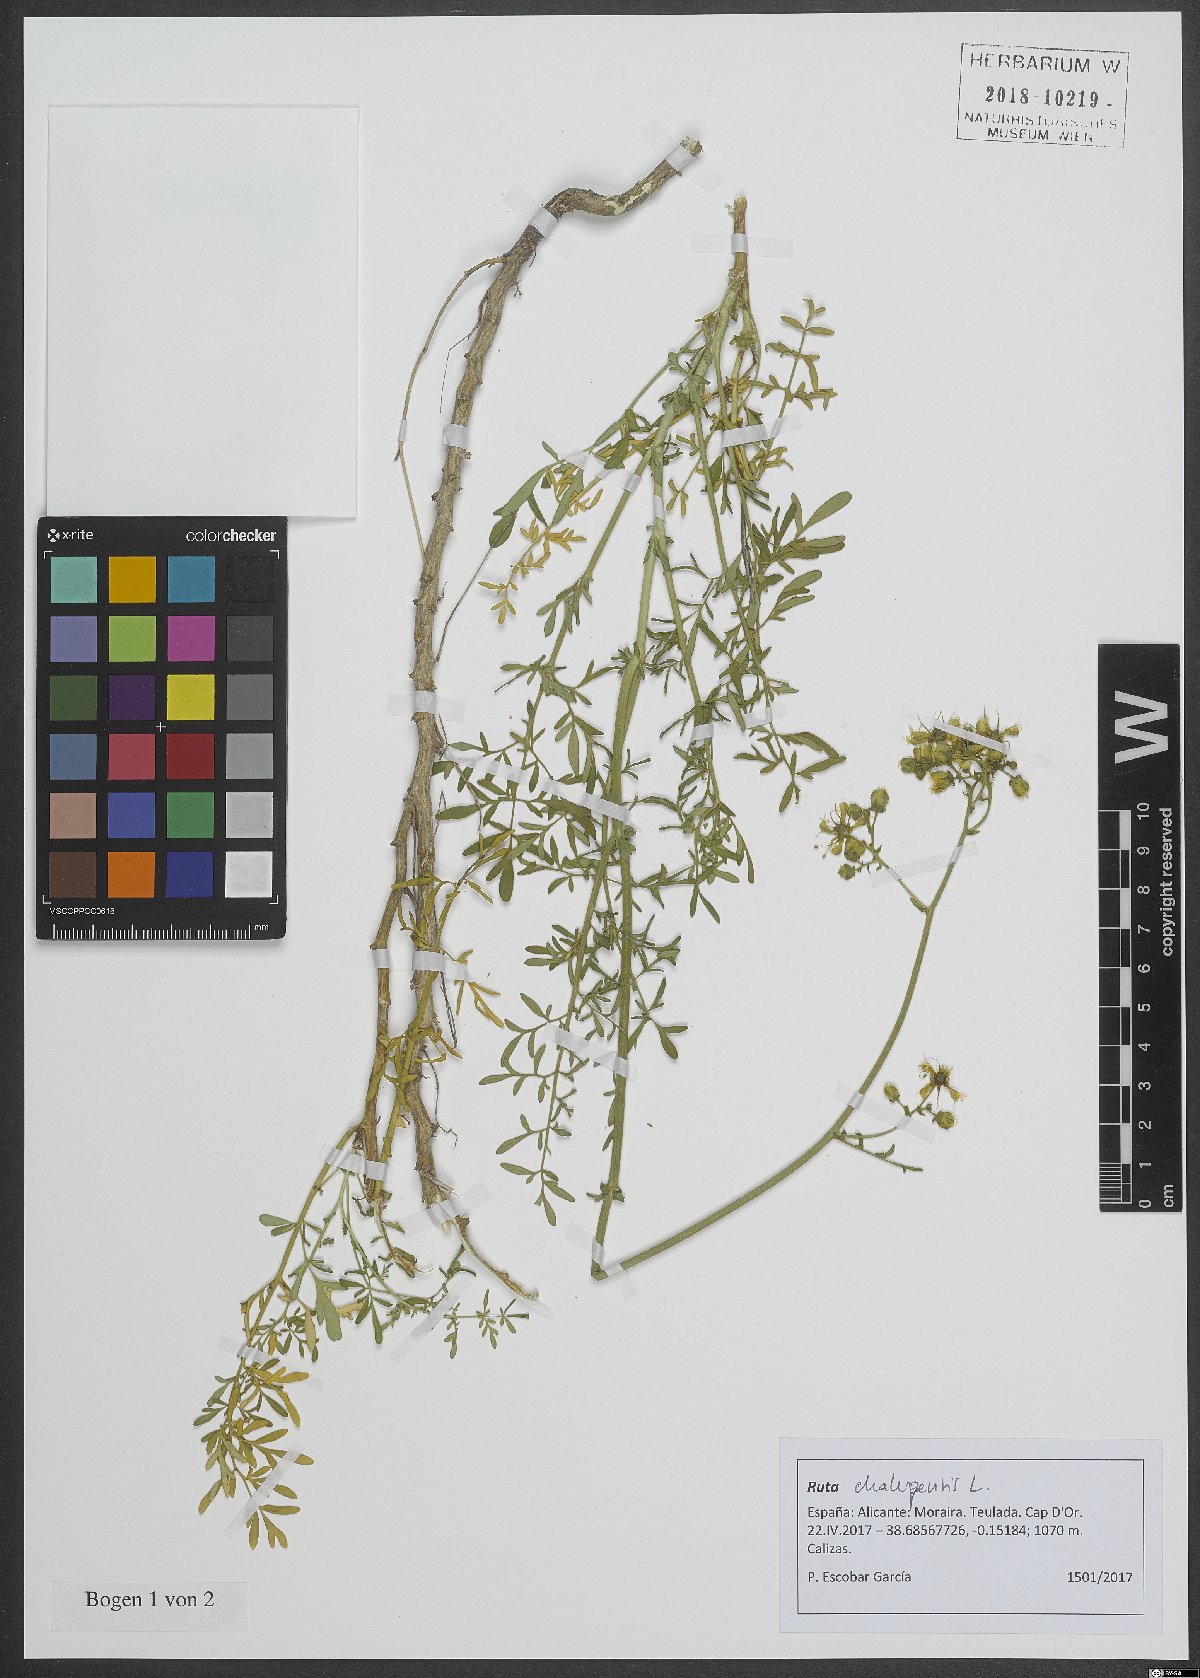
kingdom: Plantae
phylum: Tracheophyta
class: Magnoliopsida
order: Sapindales
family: Rutaceae
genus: Ruta
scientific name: Ruta chalepensis
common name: Fringed rue
